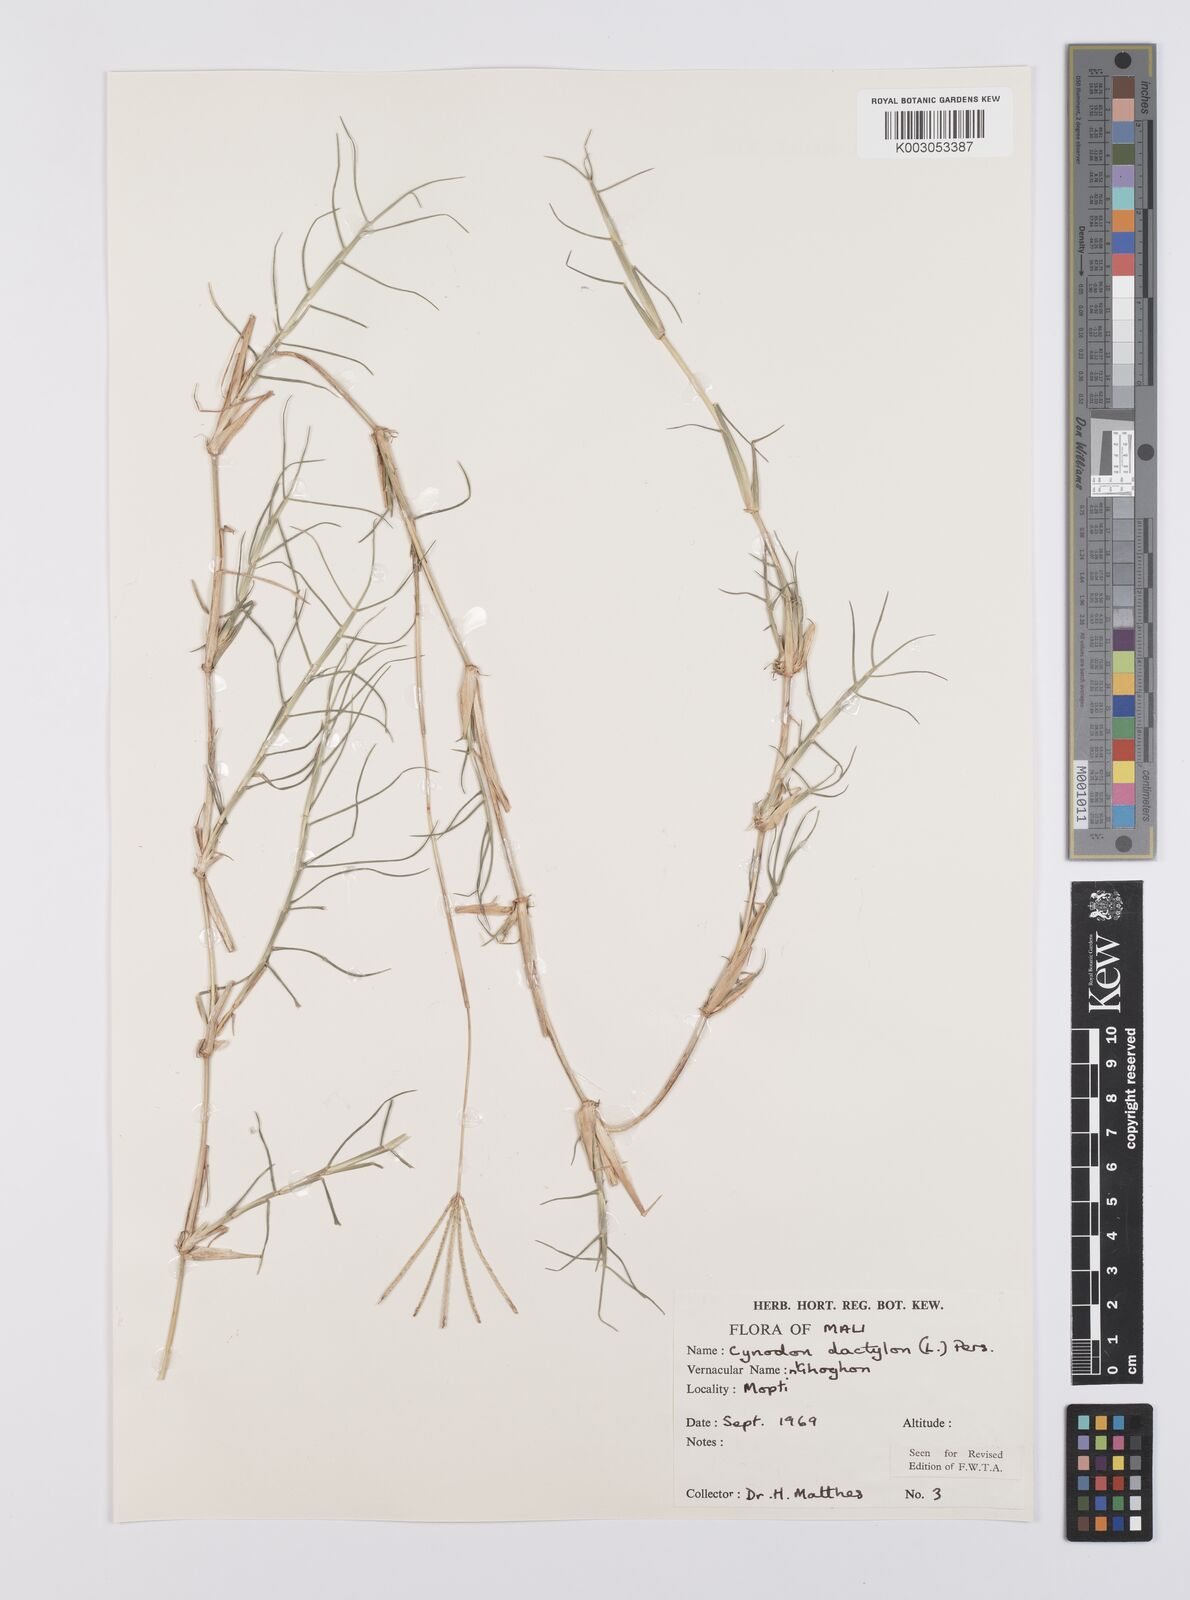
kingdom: Plantae
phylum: Tracheophyta
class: Liliopsida
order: Poales
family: Poaceae
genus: Cynodon
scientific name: Cynodon dactylon
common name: Bermuda grass
